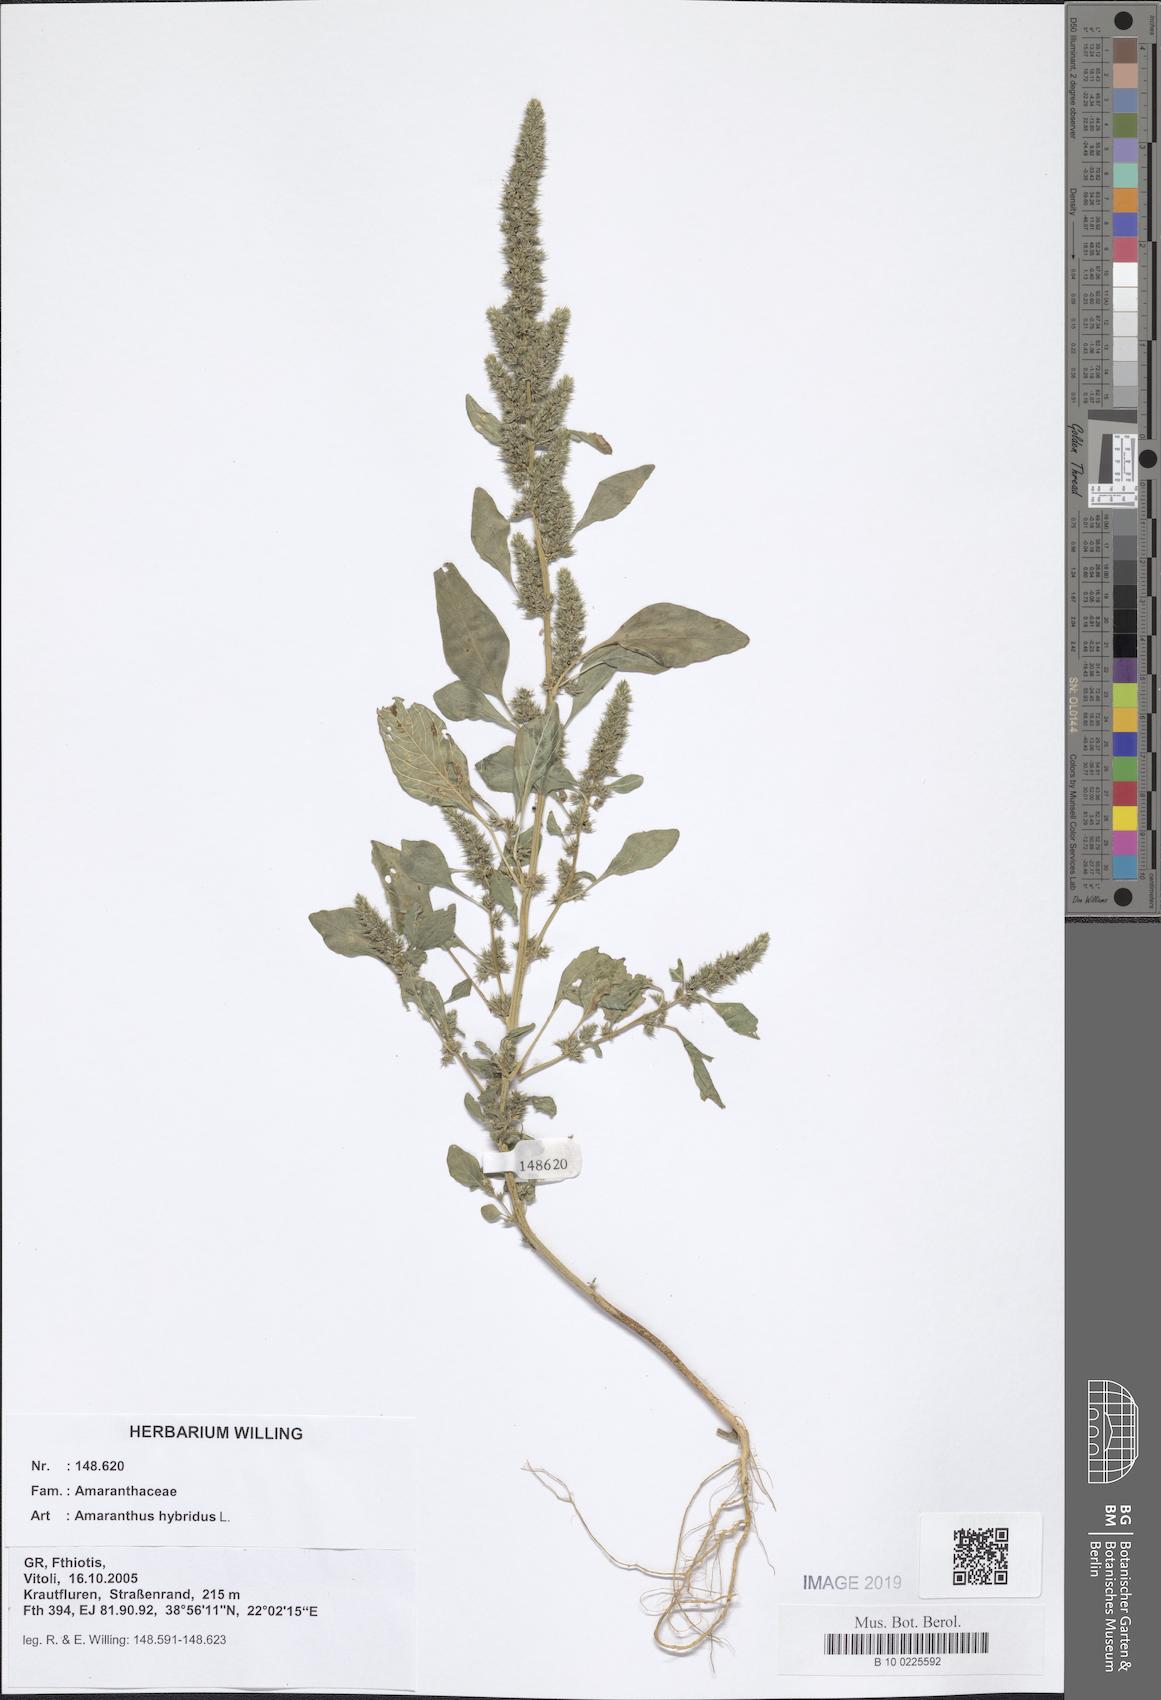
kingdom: Plantae
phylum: Tracheophyta
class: Magnoliopsida
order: Caryophyllales
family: Amaranthaceae
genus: Amaranthus
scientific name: Amaranthus hybridus
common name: Green amaranth
